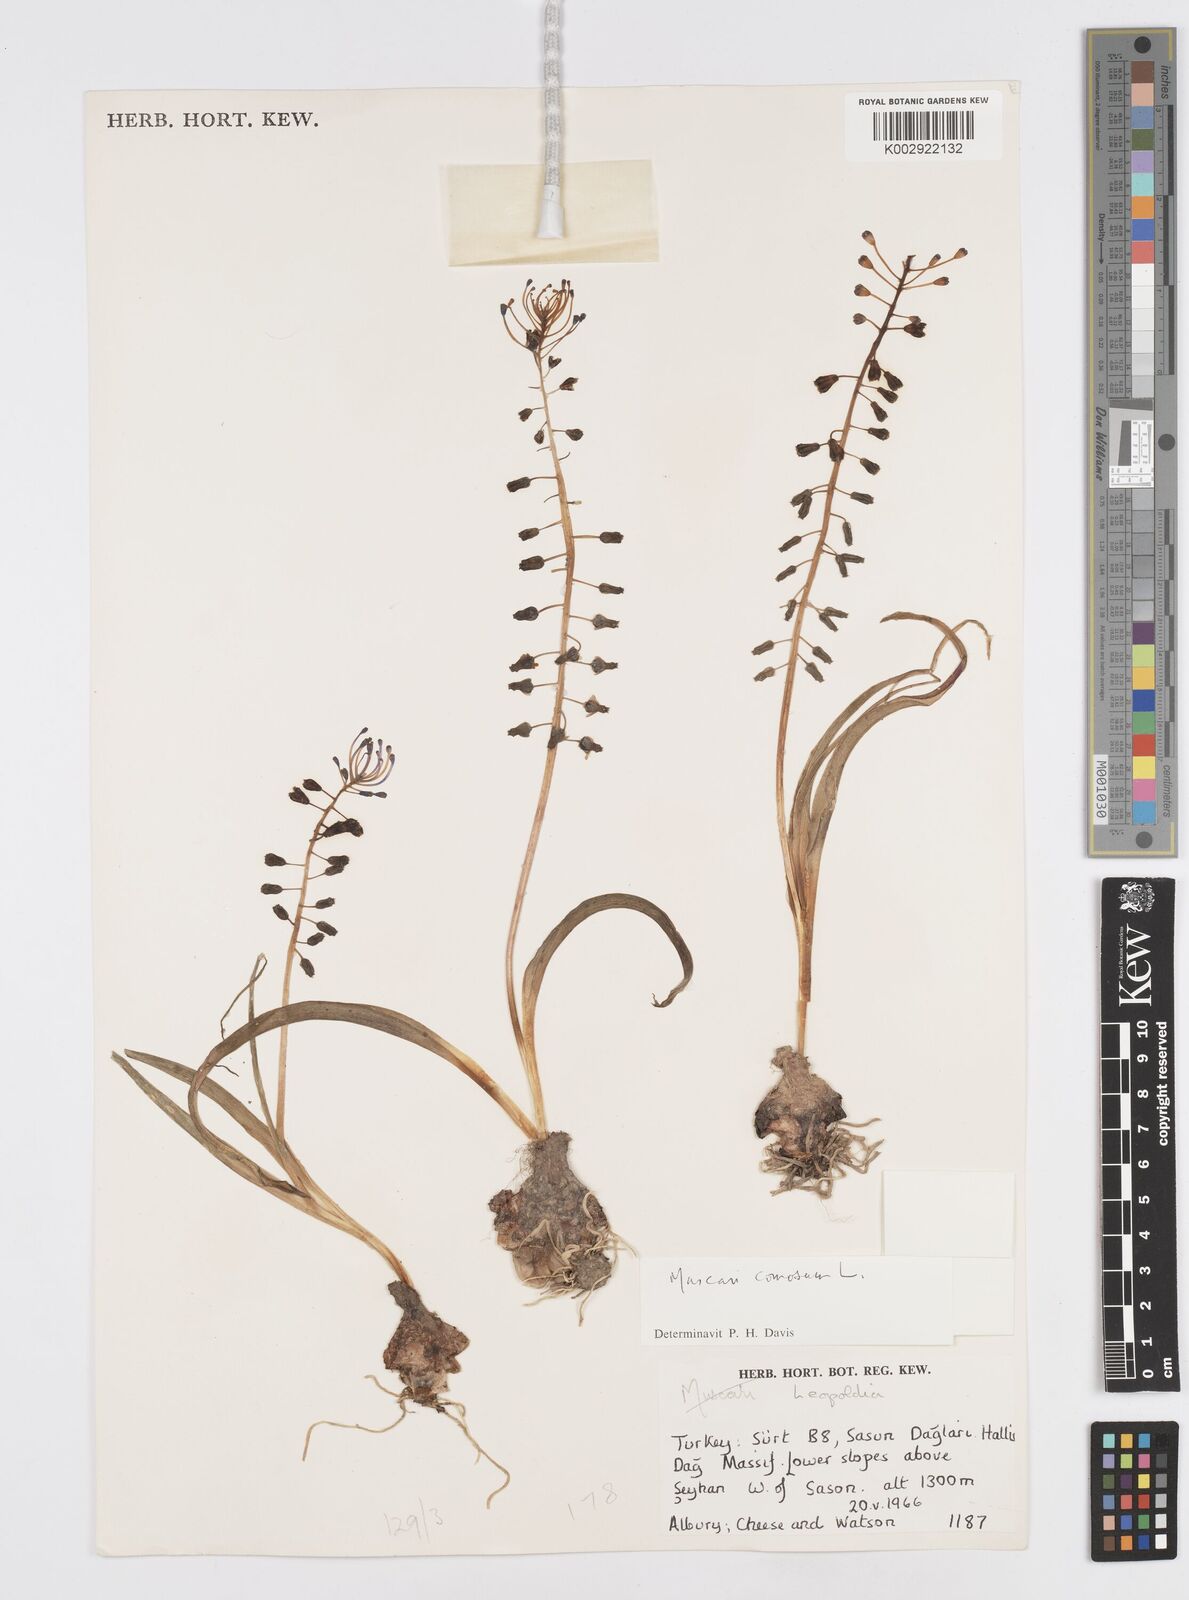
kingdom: Plantae
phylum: Tracheophyta
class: Liliopsida
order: Asparagales
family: Asparagaceae
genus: Muscari
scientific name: Muscari comosum
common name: Tassel hyacinth
